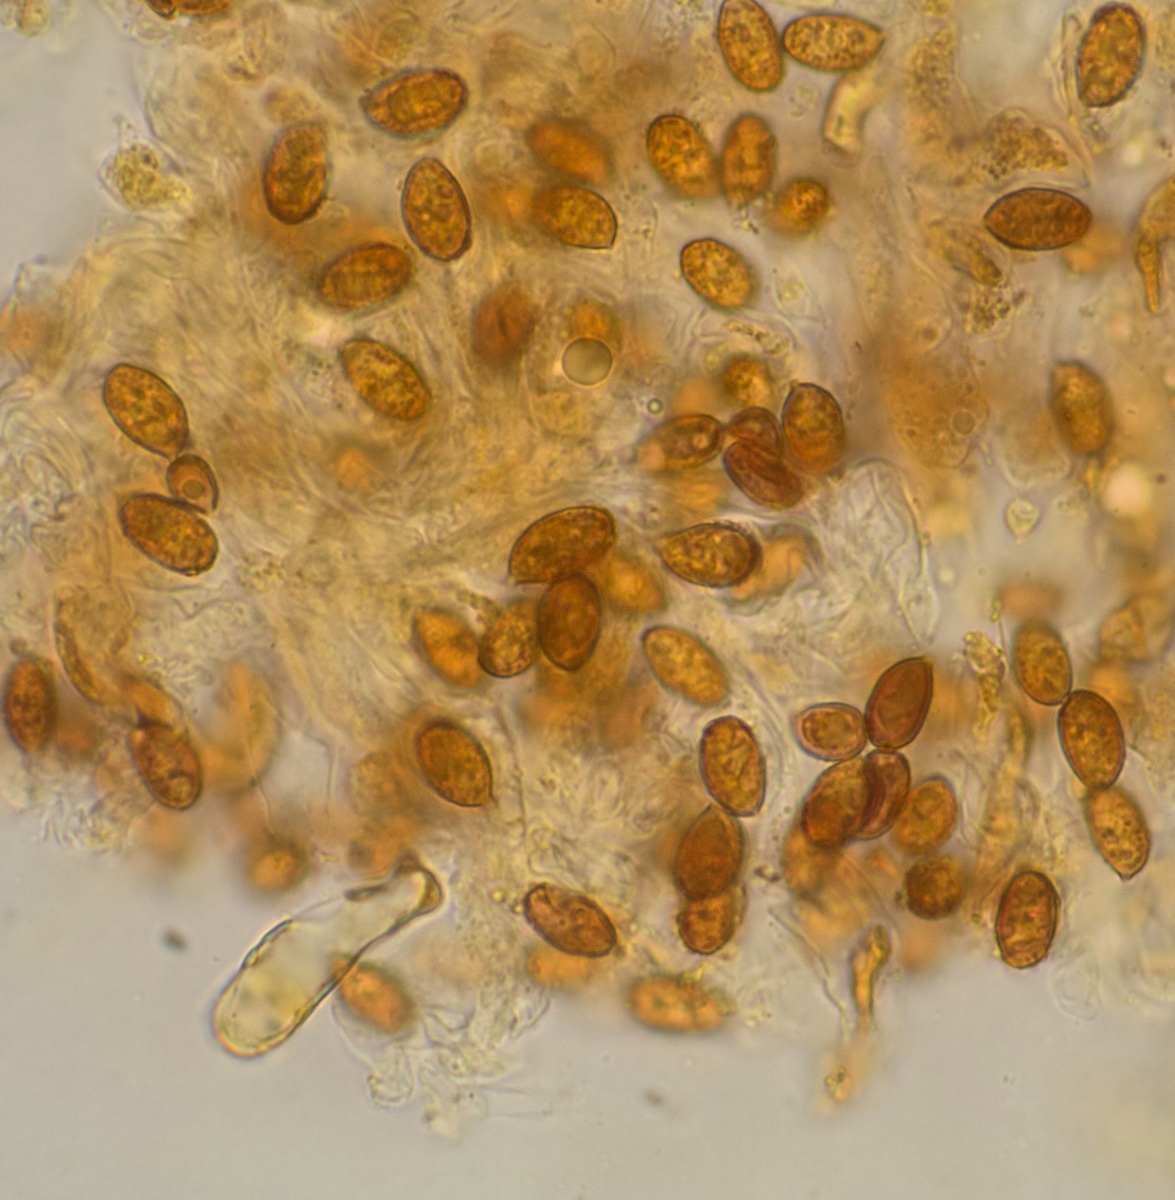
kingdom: Fungi
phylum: Basidiomycota
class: Agaricomycetes
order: Agaricales
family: Cortinariaceae
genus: Cortinarius
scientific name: Cortinarius urbicus
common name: sølv-slørhat
